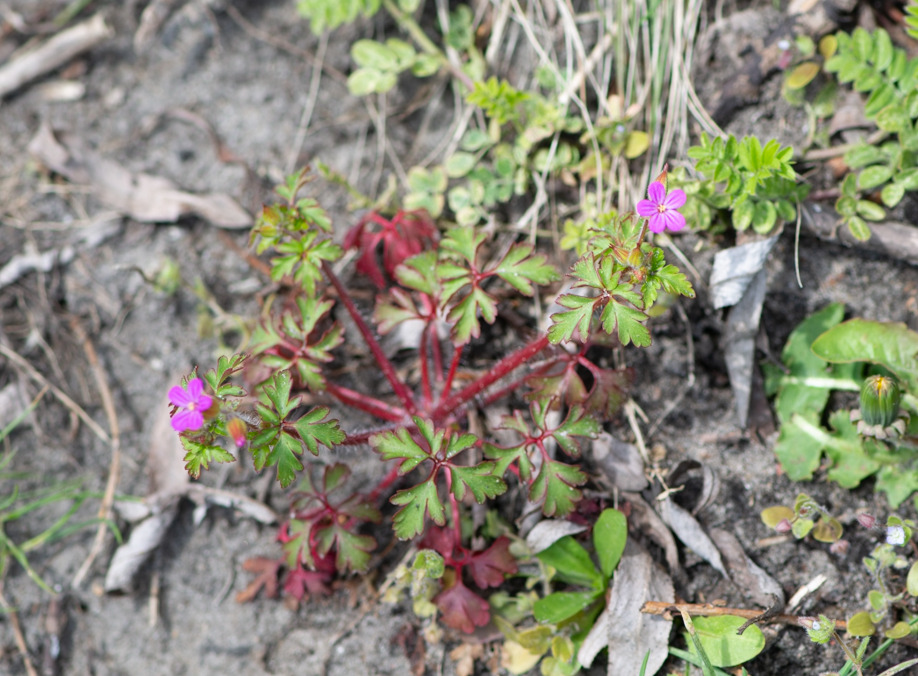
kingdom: Plantae
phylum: Tracheophyta
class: Magnoliopsida
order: Geraniales
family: Geraniaceae
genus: Geranium
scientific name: Geranium robertianum
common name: Stinkende storkenæb
